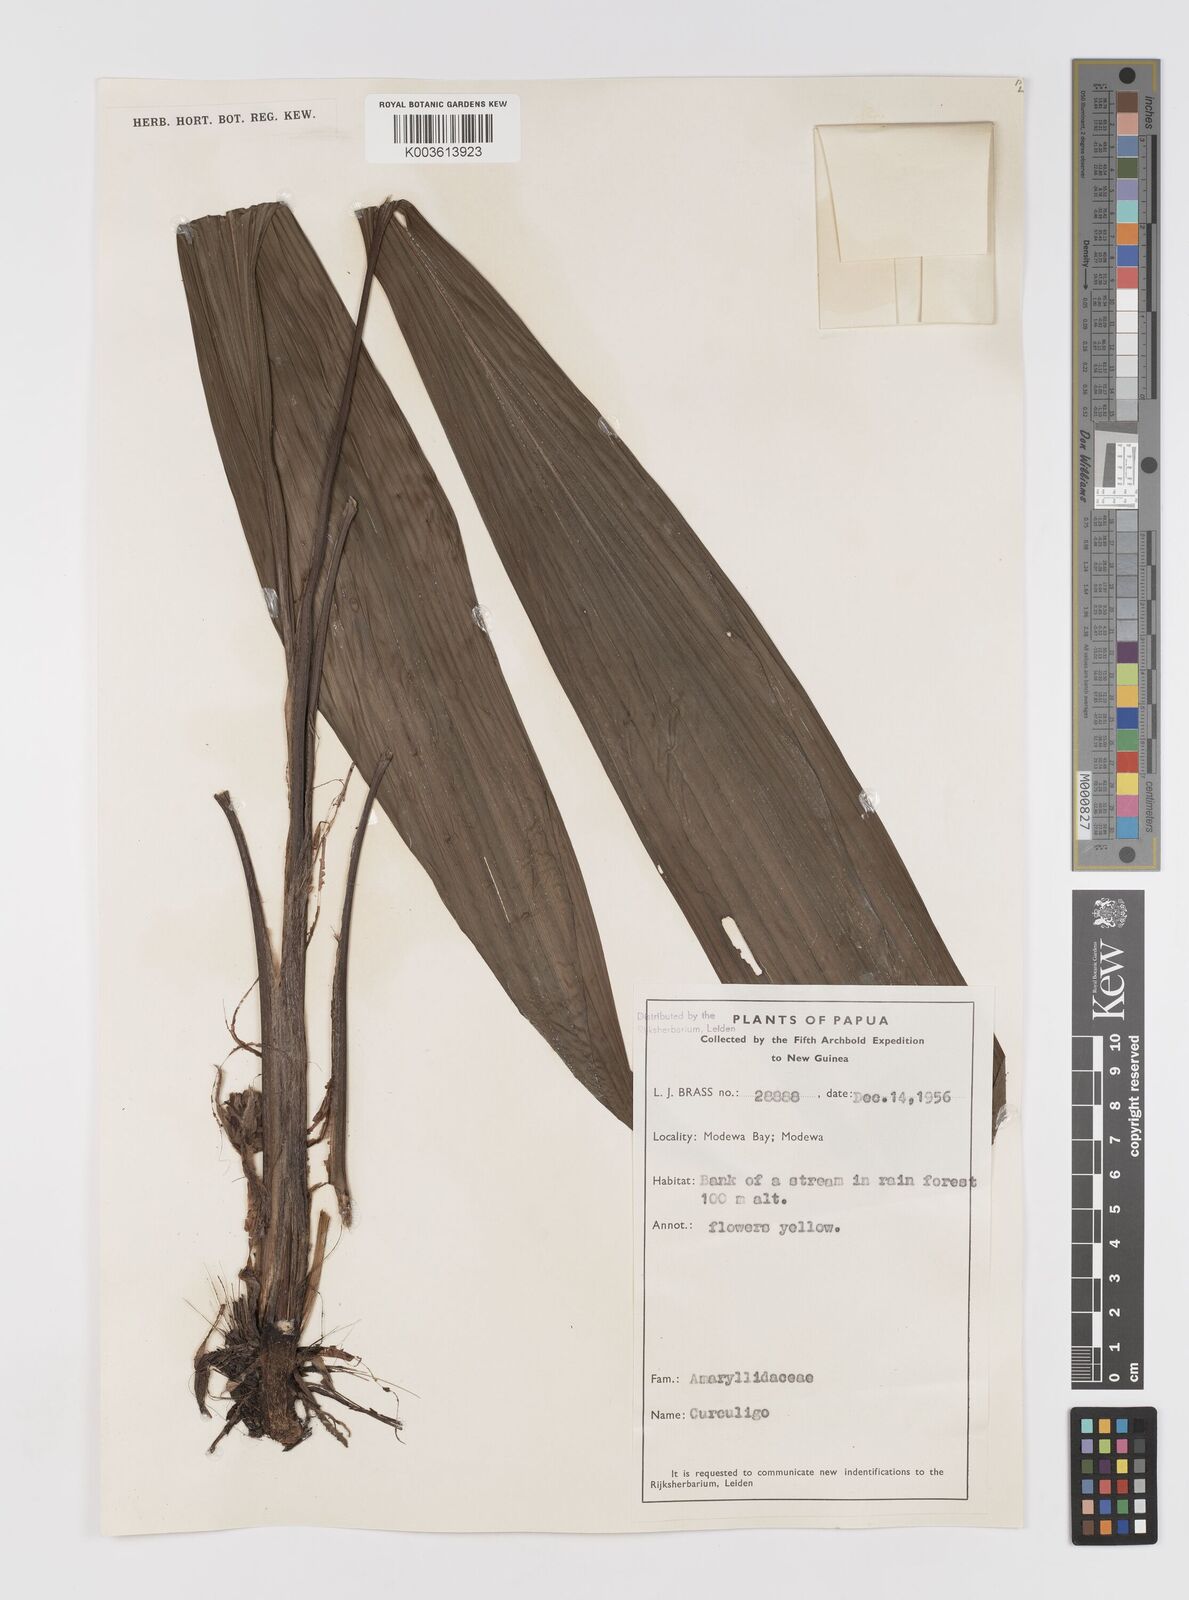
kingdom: Plantae
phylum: Tracheophyta
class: Liliopsida
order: Asparagales
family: Hypoxidaceae
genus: Curculigo
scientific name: Curculigo
